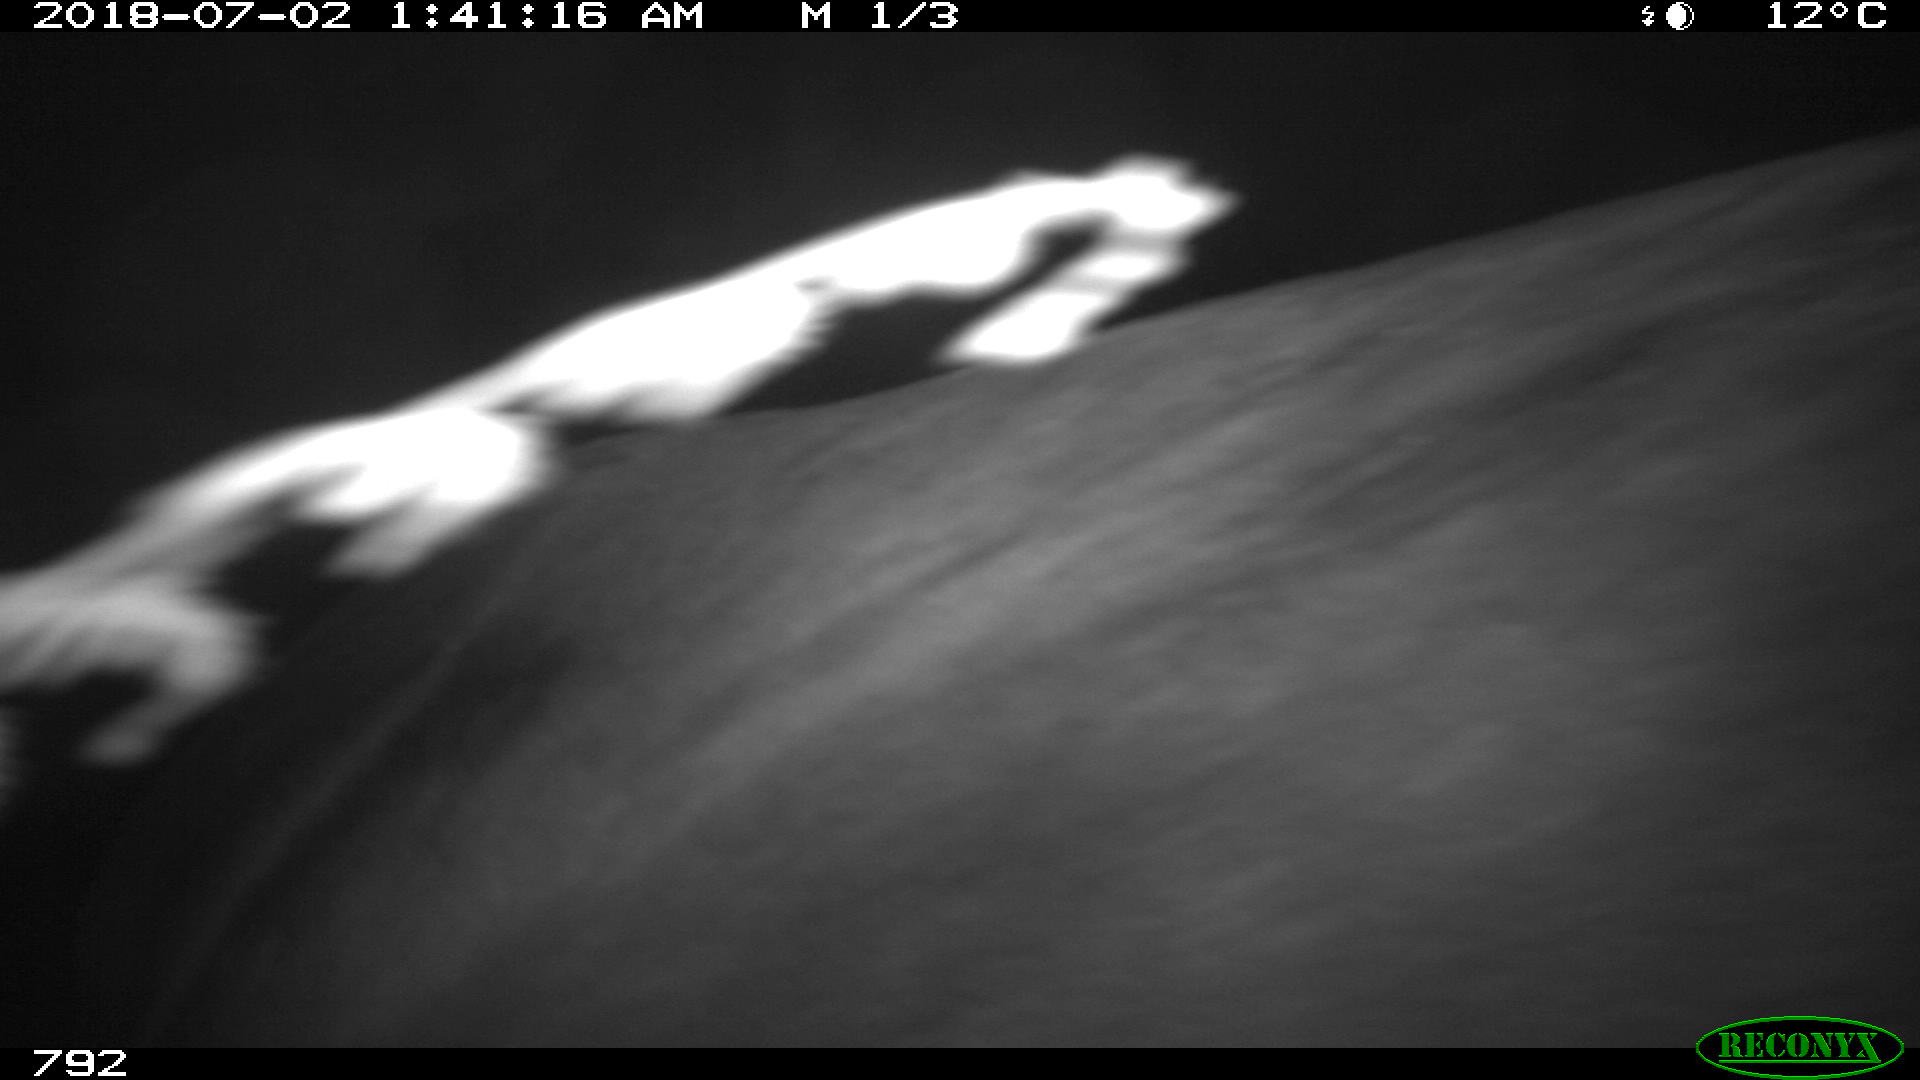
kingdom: Animalia
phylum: Chordata
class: Mammalia
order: Perissodactyla
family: Equidae
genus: Equus
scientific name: Equus caballus
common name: Horse
